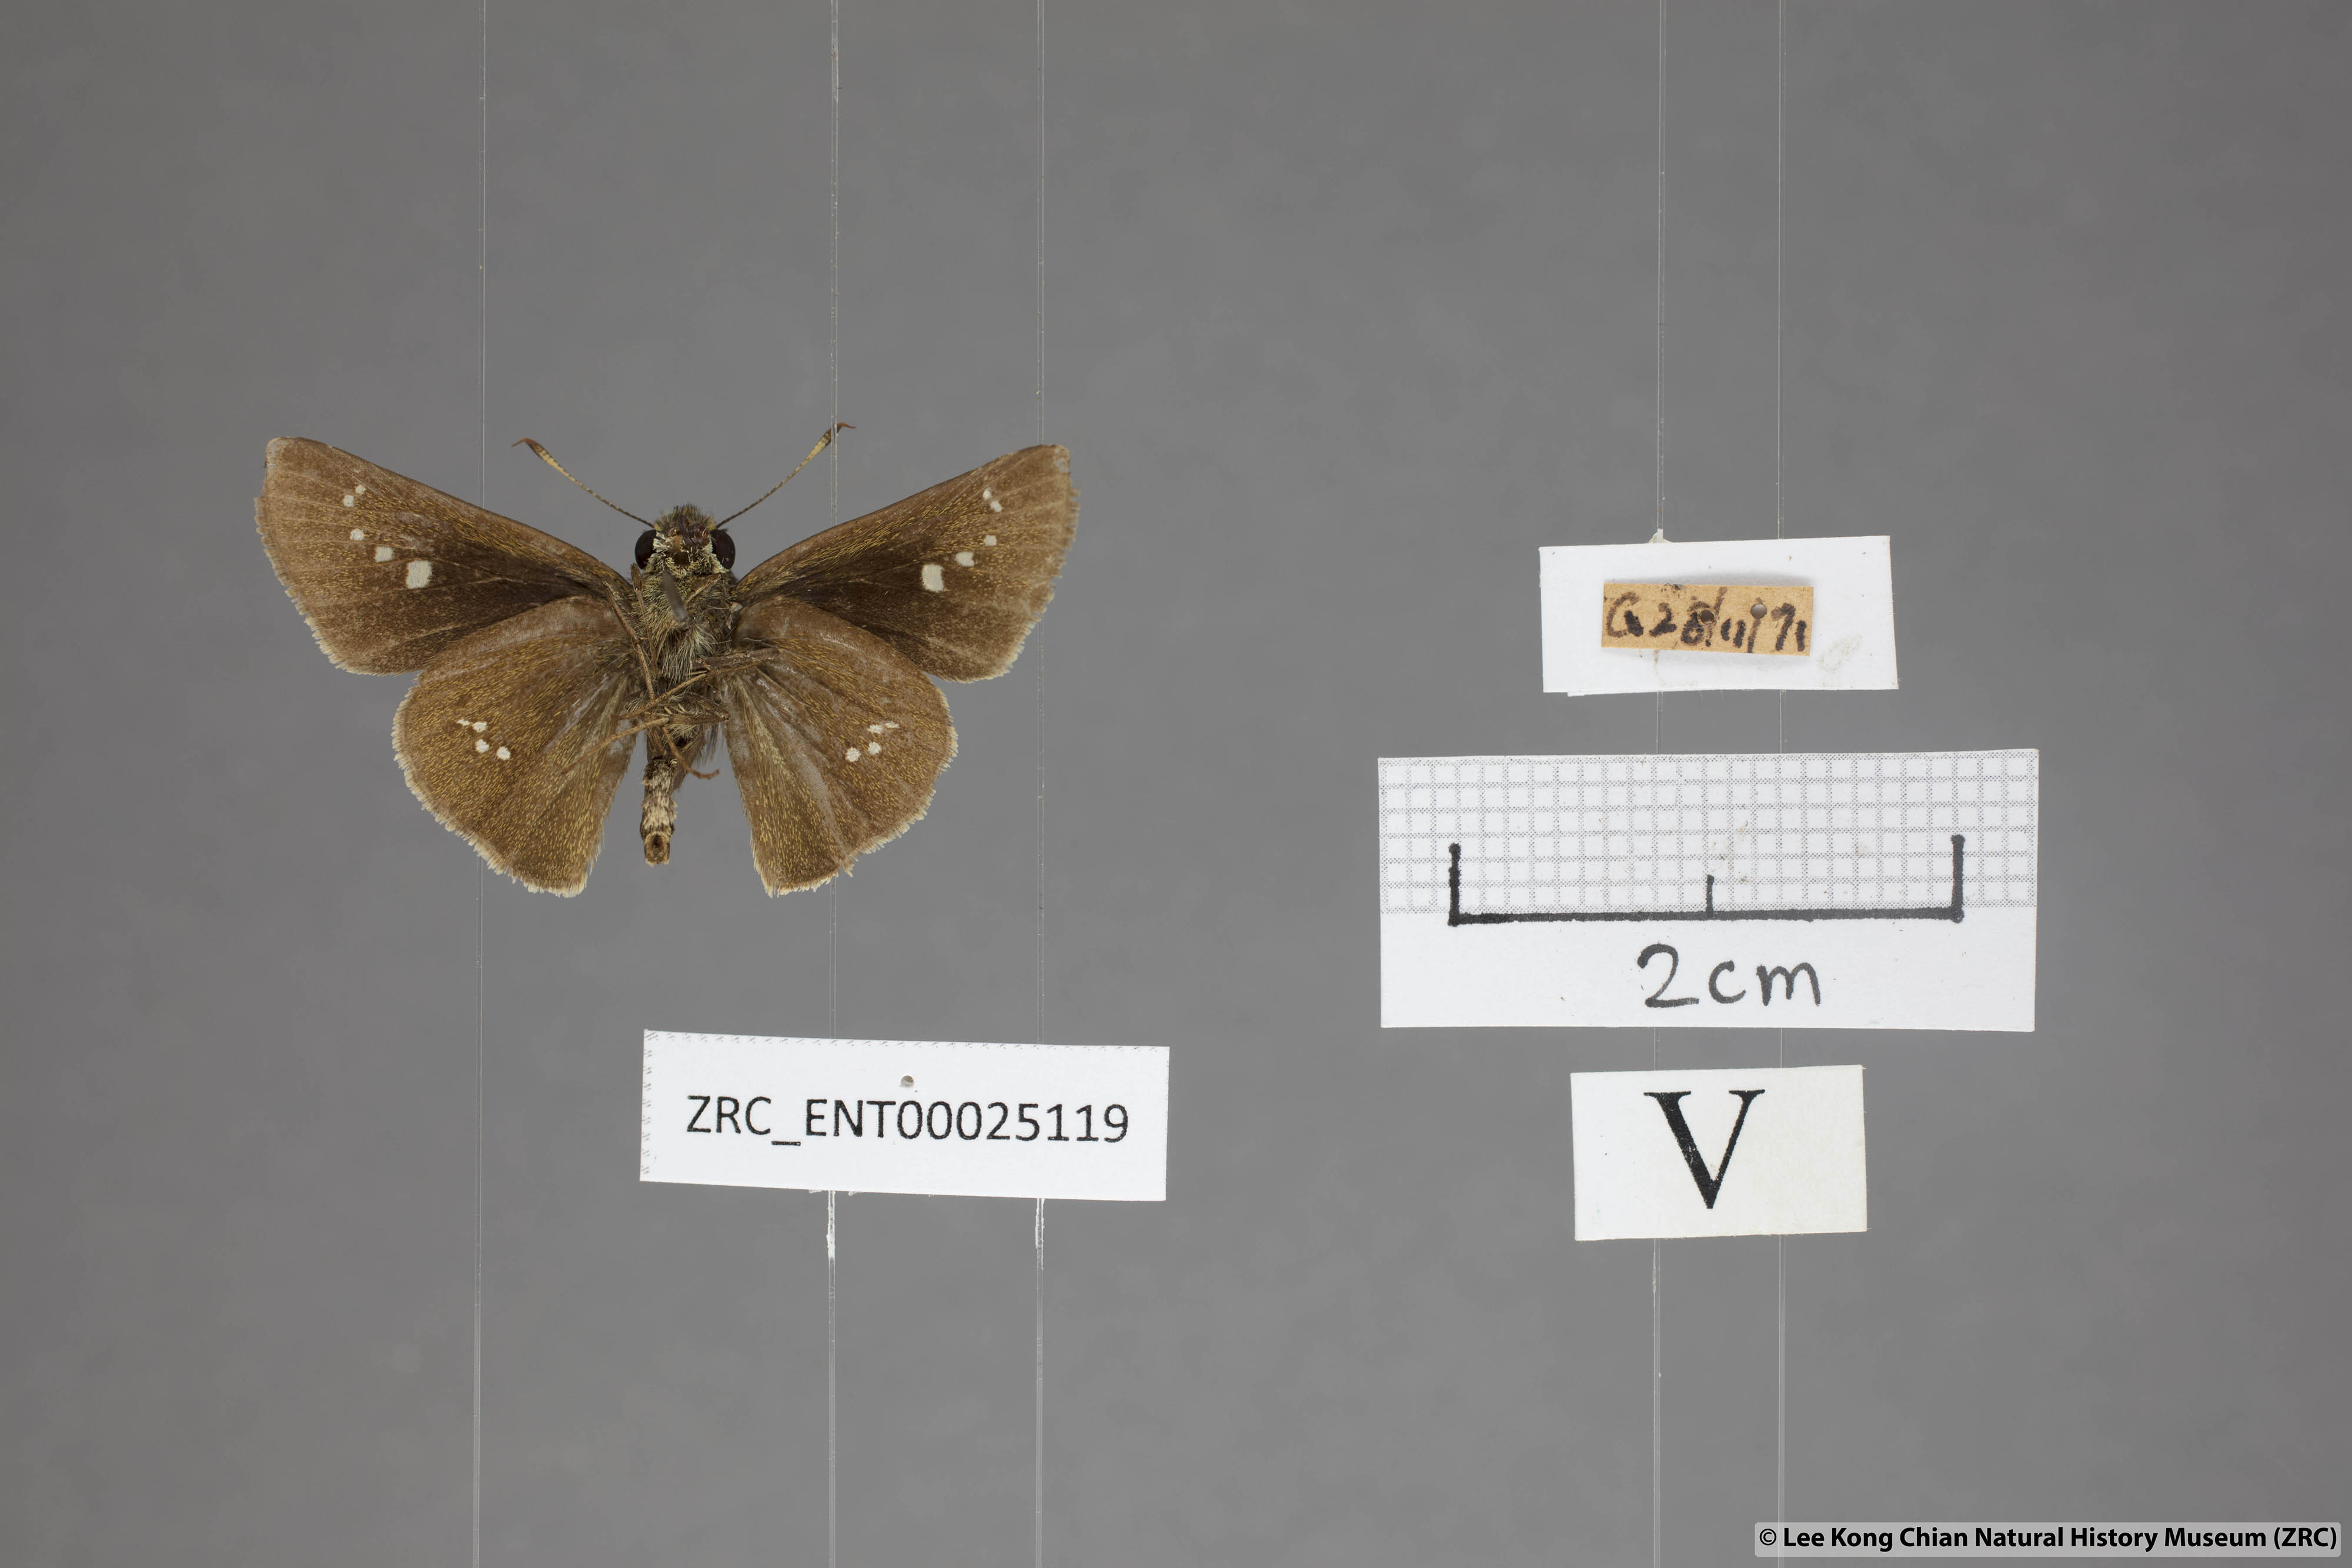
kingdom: Animalia
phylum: Arthropoda
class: Insecta
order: Lepidoptera
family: Hesperiidae
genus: Parnara
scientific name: Parnara apostata
